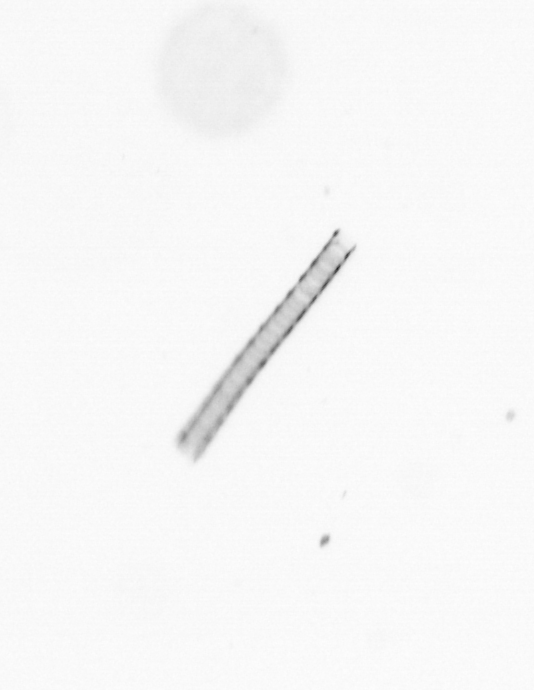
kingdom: Chromista
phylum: Ochrophyta
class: Bacillariophyceae
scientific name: Bacillariophyceae
